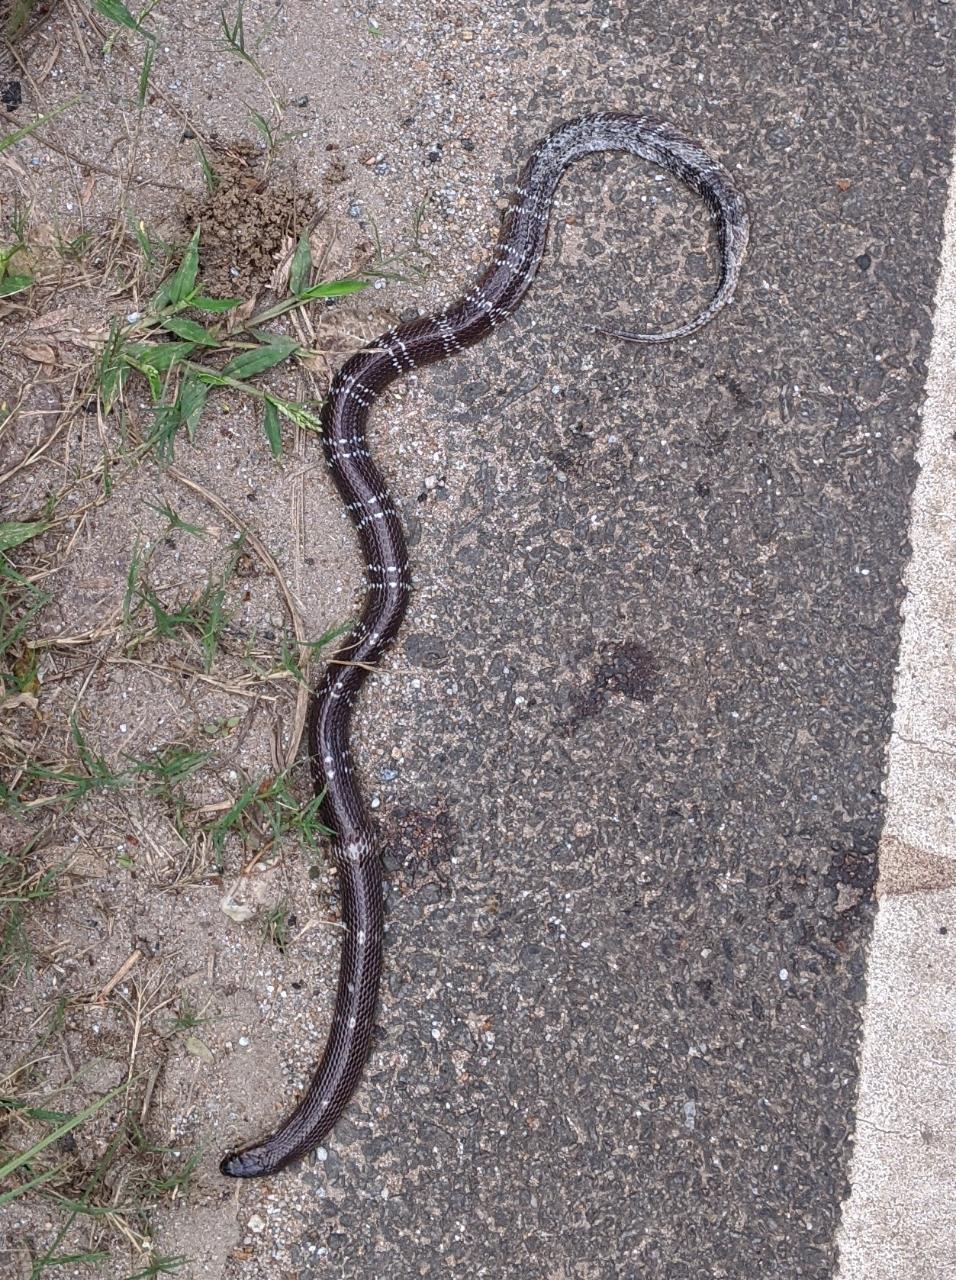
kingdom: Animalia
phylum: Chordata
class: Squamata
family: Elapidae
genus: Bungarus
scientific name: Bungarus caeruleus
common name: Common krait
